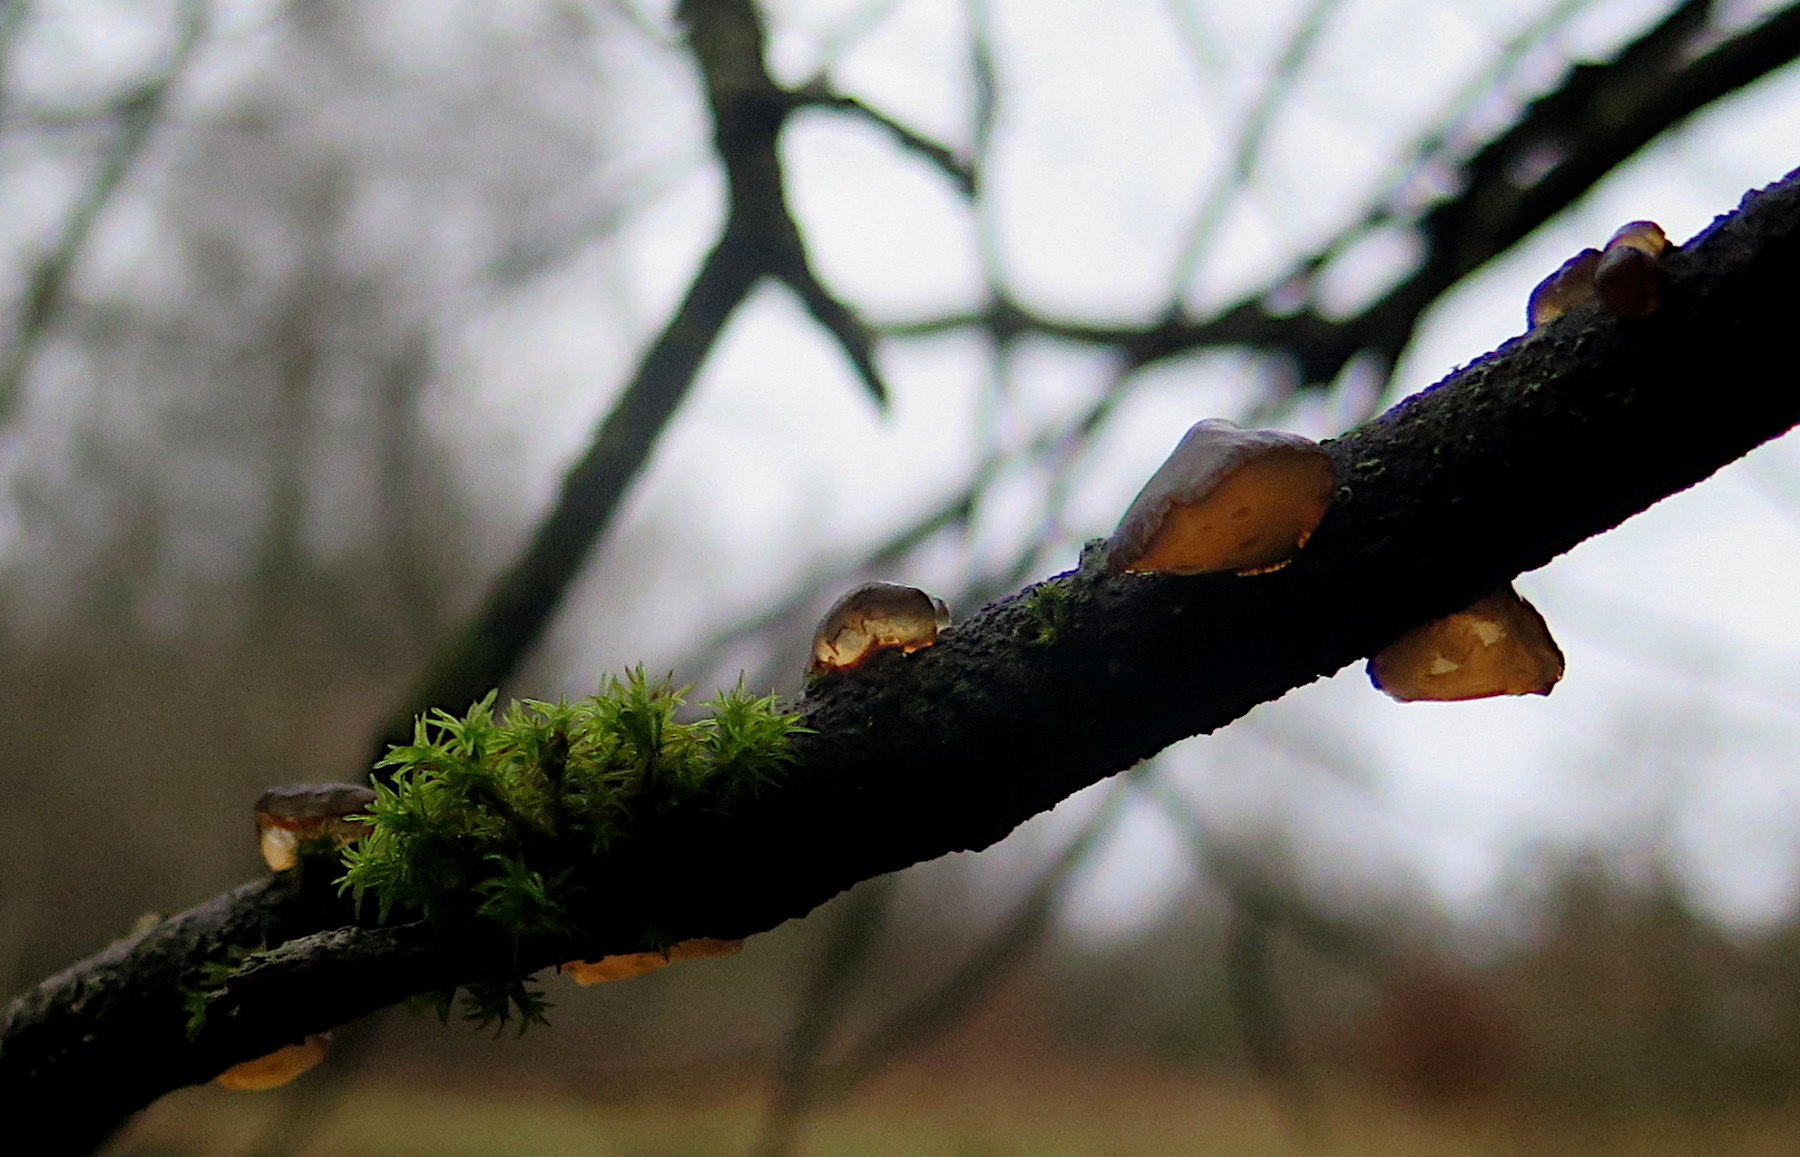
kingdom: Fungi
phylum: Basidiomycota
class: Agaricomycetes
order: Auriculariales
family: Auriculariaceae
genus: Exidia
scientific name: Exidia recisa
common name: pile-bævretop
